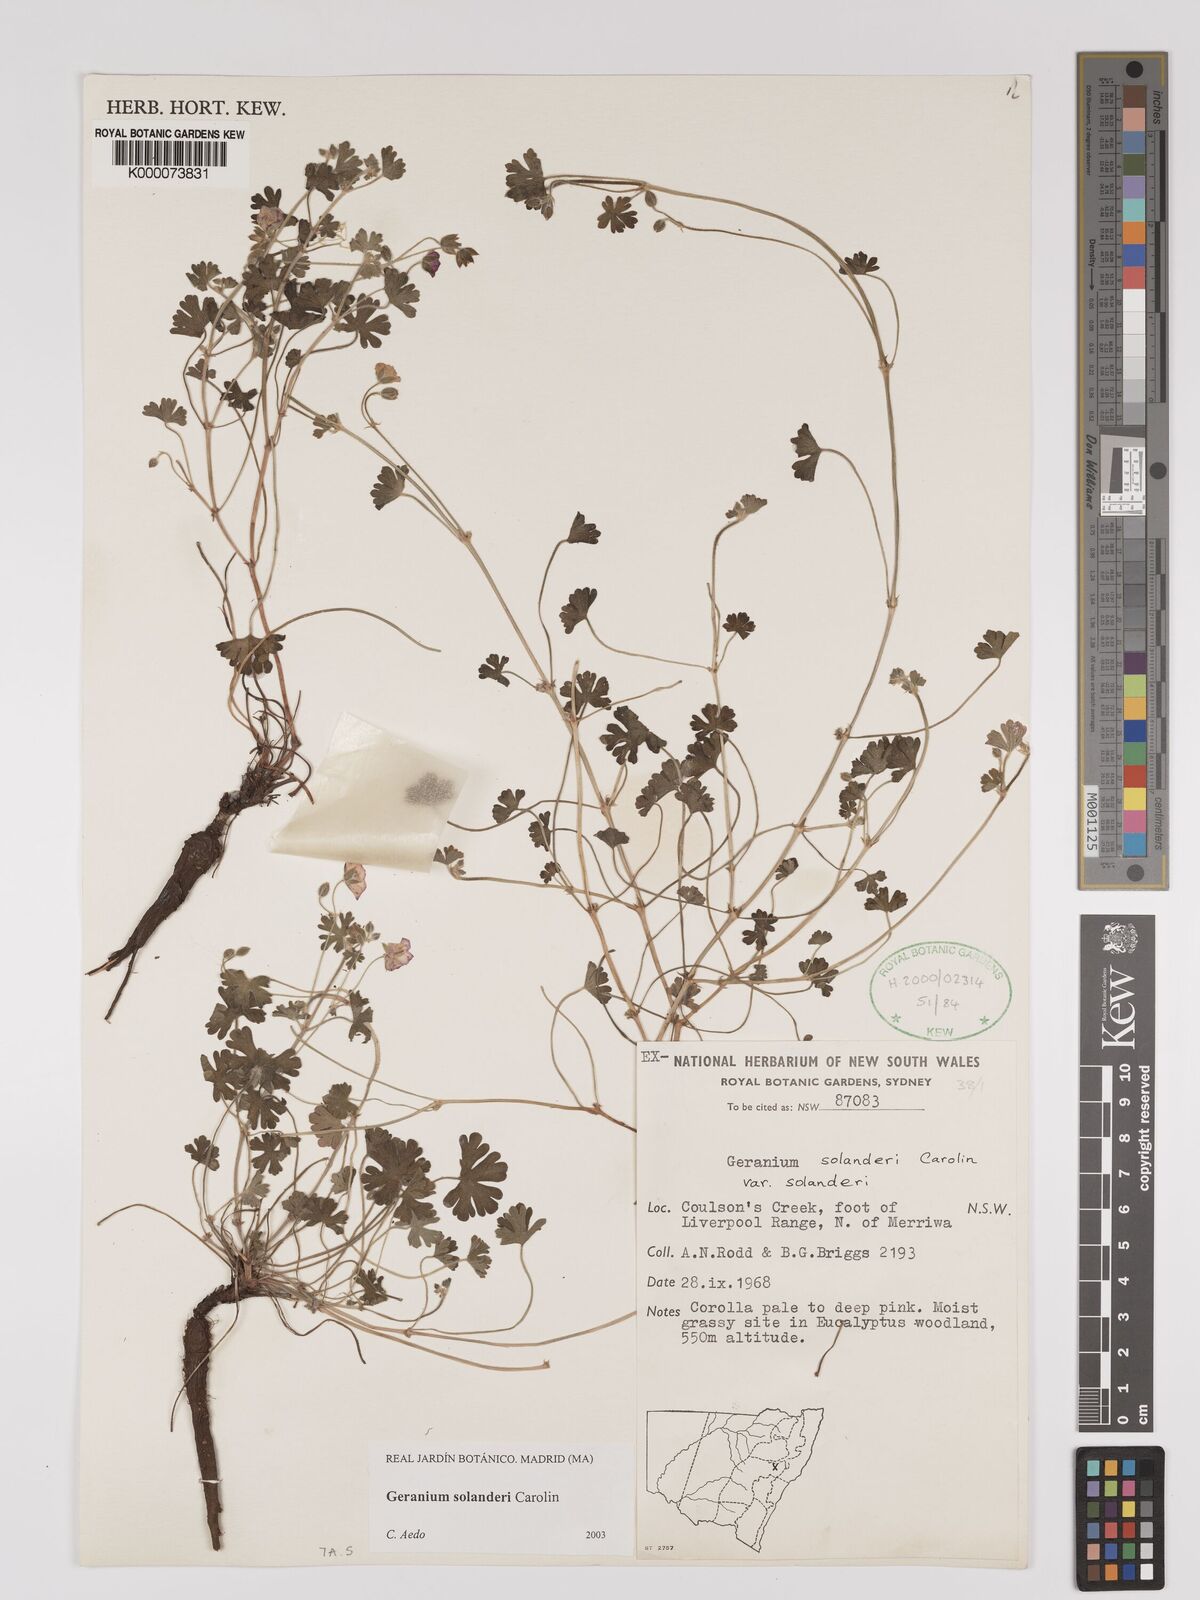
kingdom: Plantae
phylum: Tracheophyta
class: Magnoliopsida
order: Geraniales
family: Geraniaceae
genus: Geranium
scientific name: Geranium solanderi
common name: Solander's geranium
